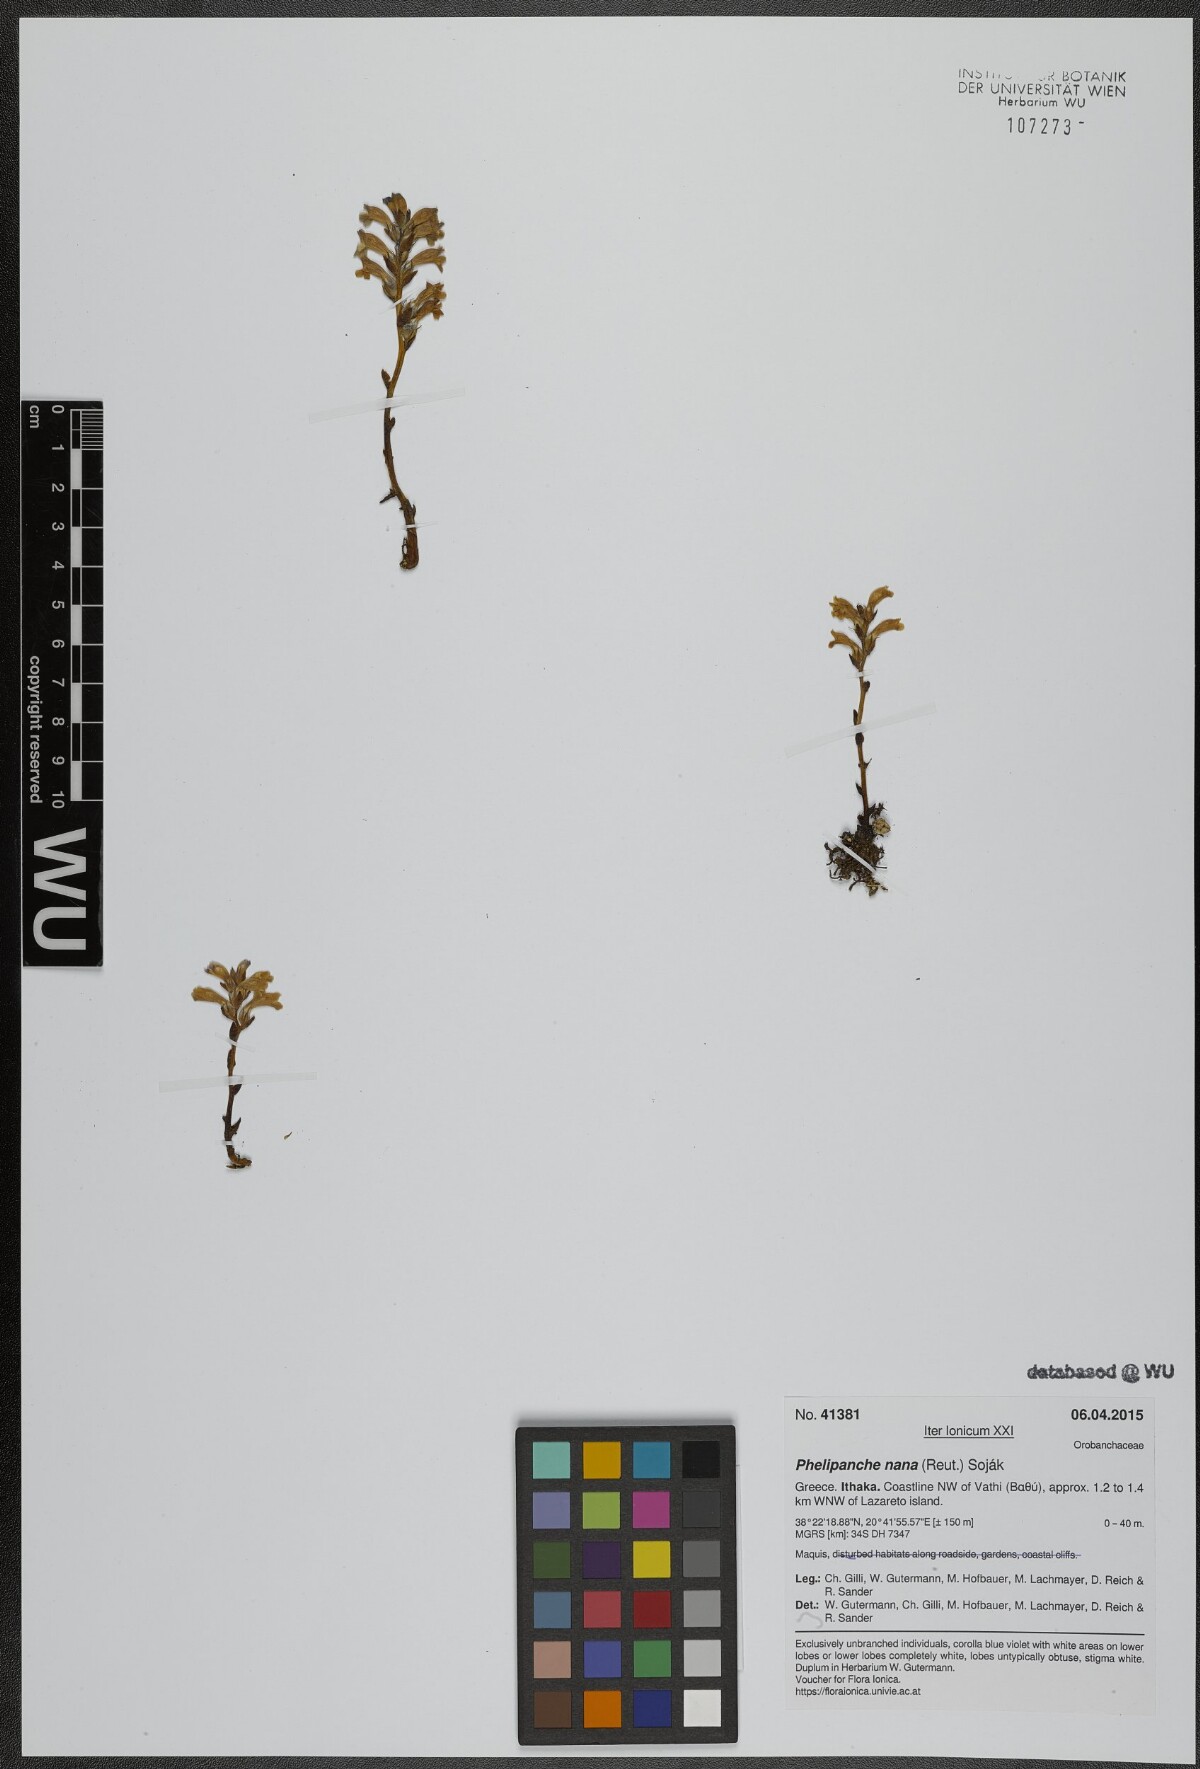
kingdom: Plantae
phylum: Tracheophyta
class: Magnoliopsida
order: Lamiales
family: Orobanchaceae
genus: Phelipanche
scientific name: Phelipanche mutelii
